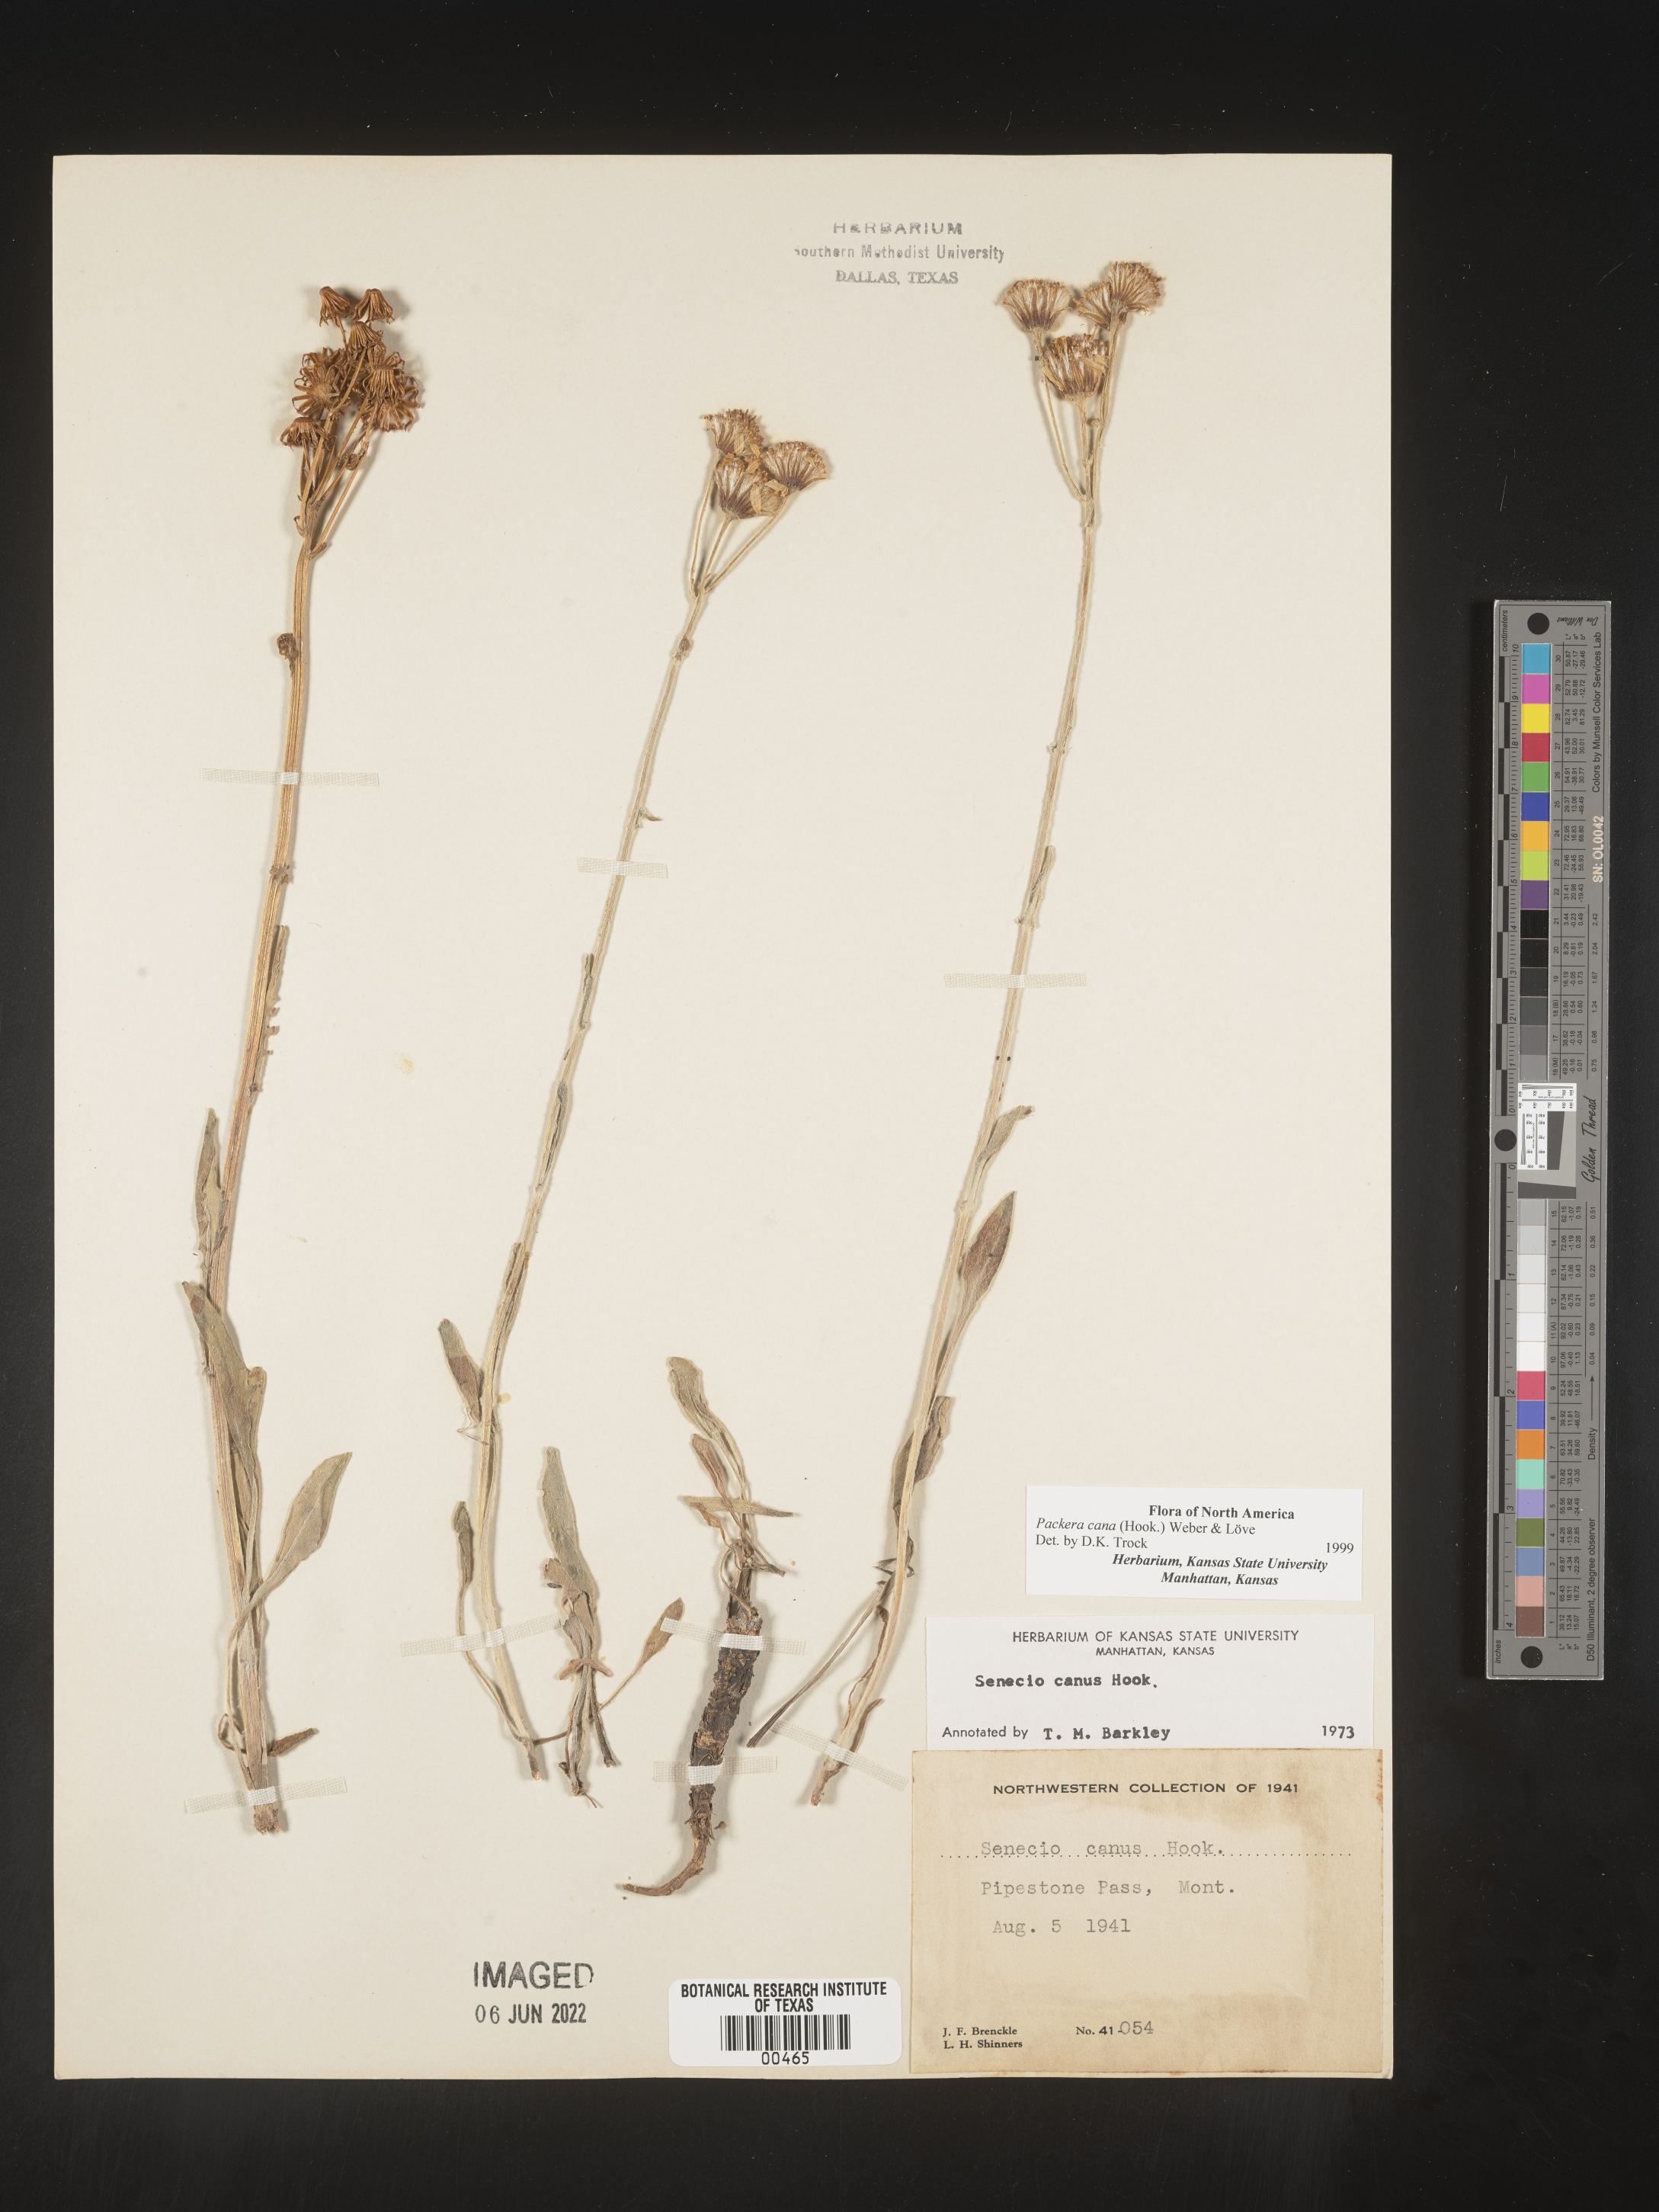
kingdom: Plantae
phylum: Tracheophyta
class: Magnoliopsida
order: Asterales
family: Asteraceae
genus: Packera
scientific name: Packera cana
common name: Woolly groundsel
